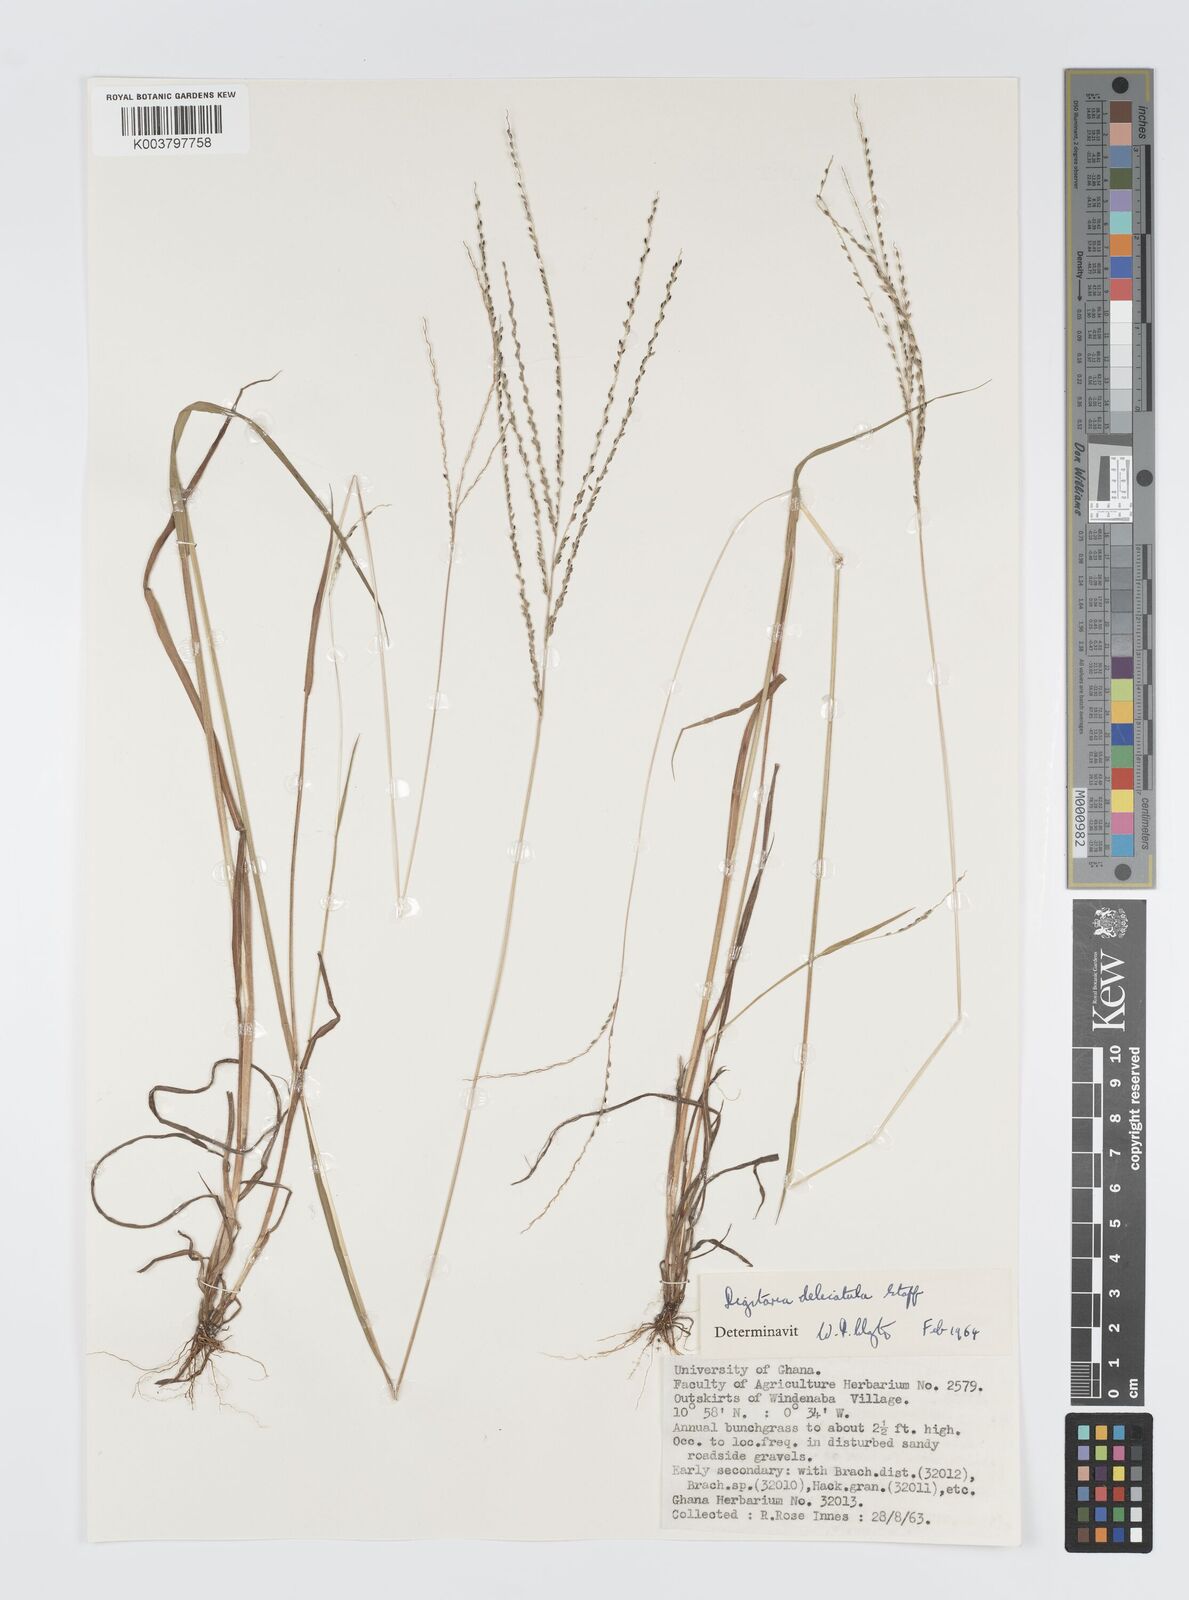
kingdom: Plantae
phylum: Tracheophyta
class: Liliopsida
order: Poales
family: Poaceae
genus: Digitaria
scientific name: Digitaria delicatula
